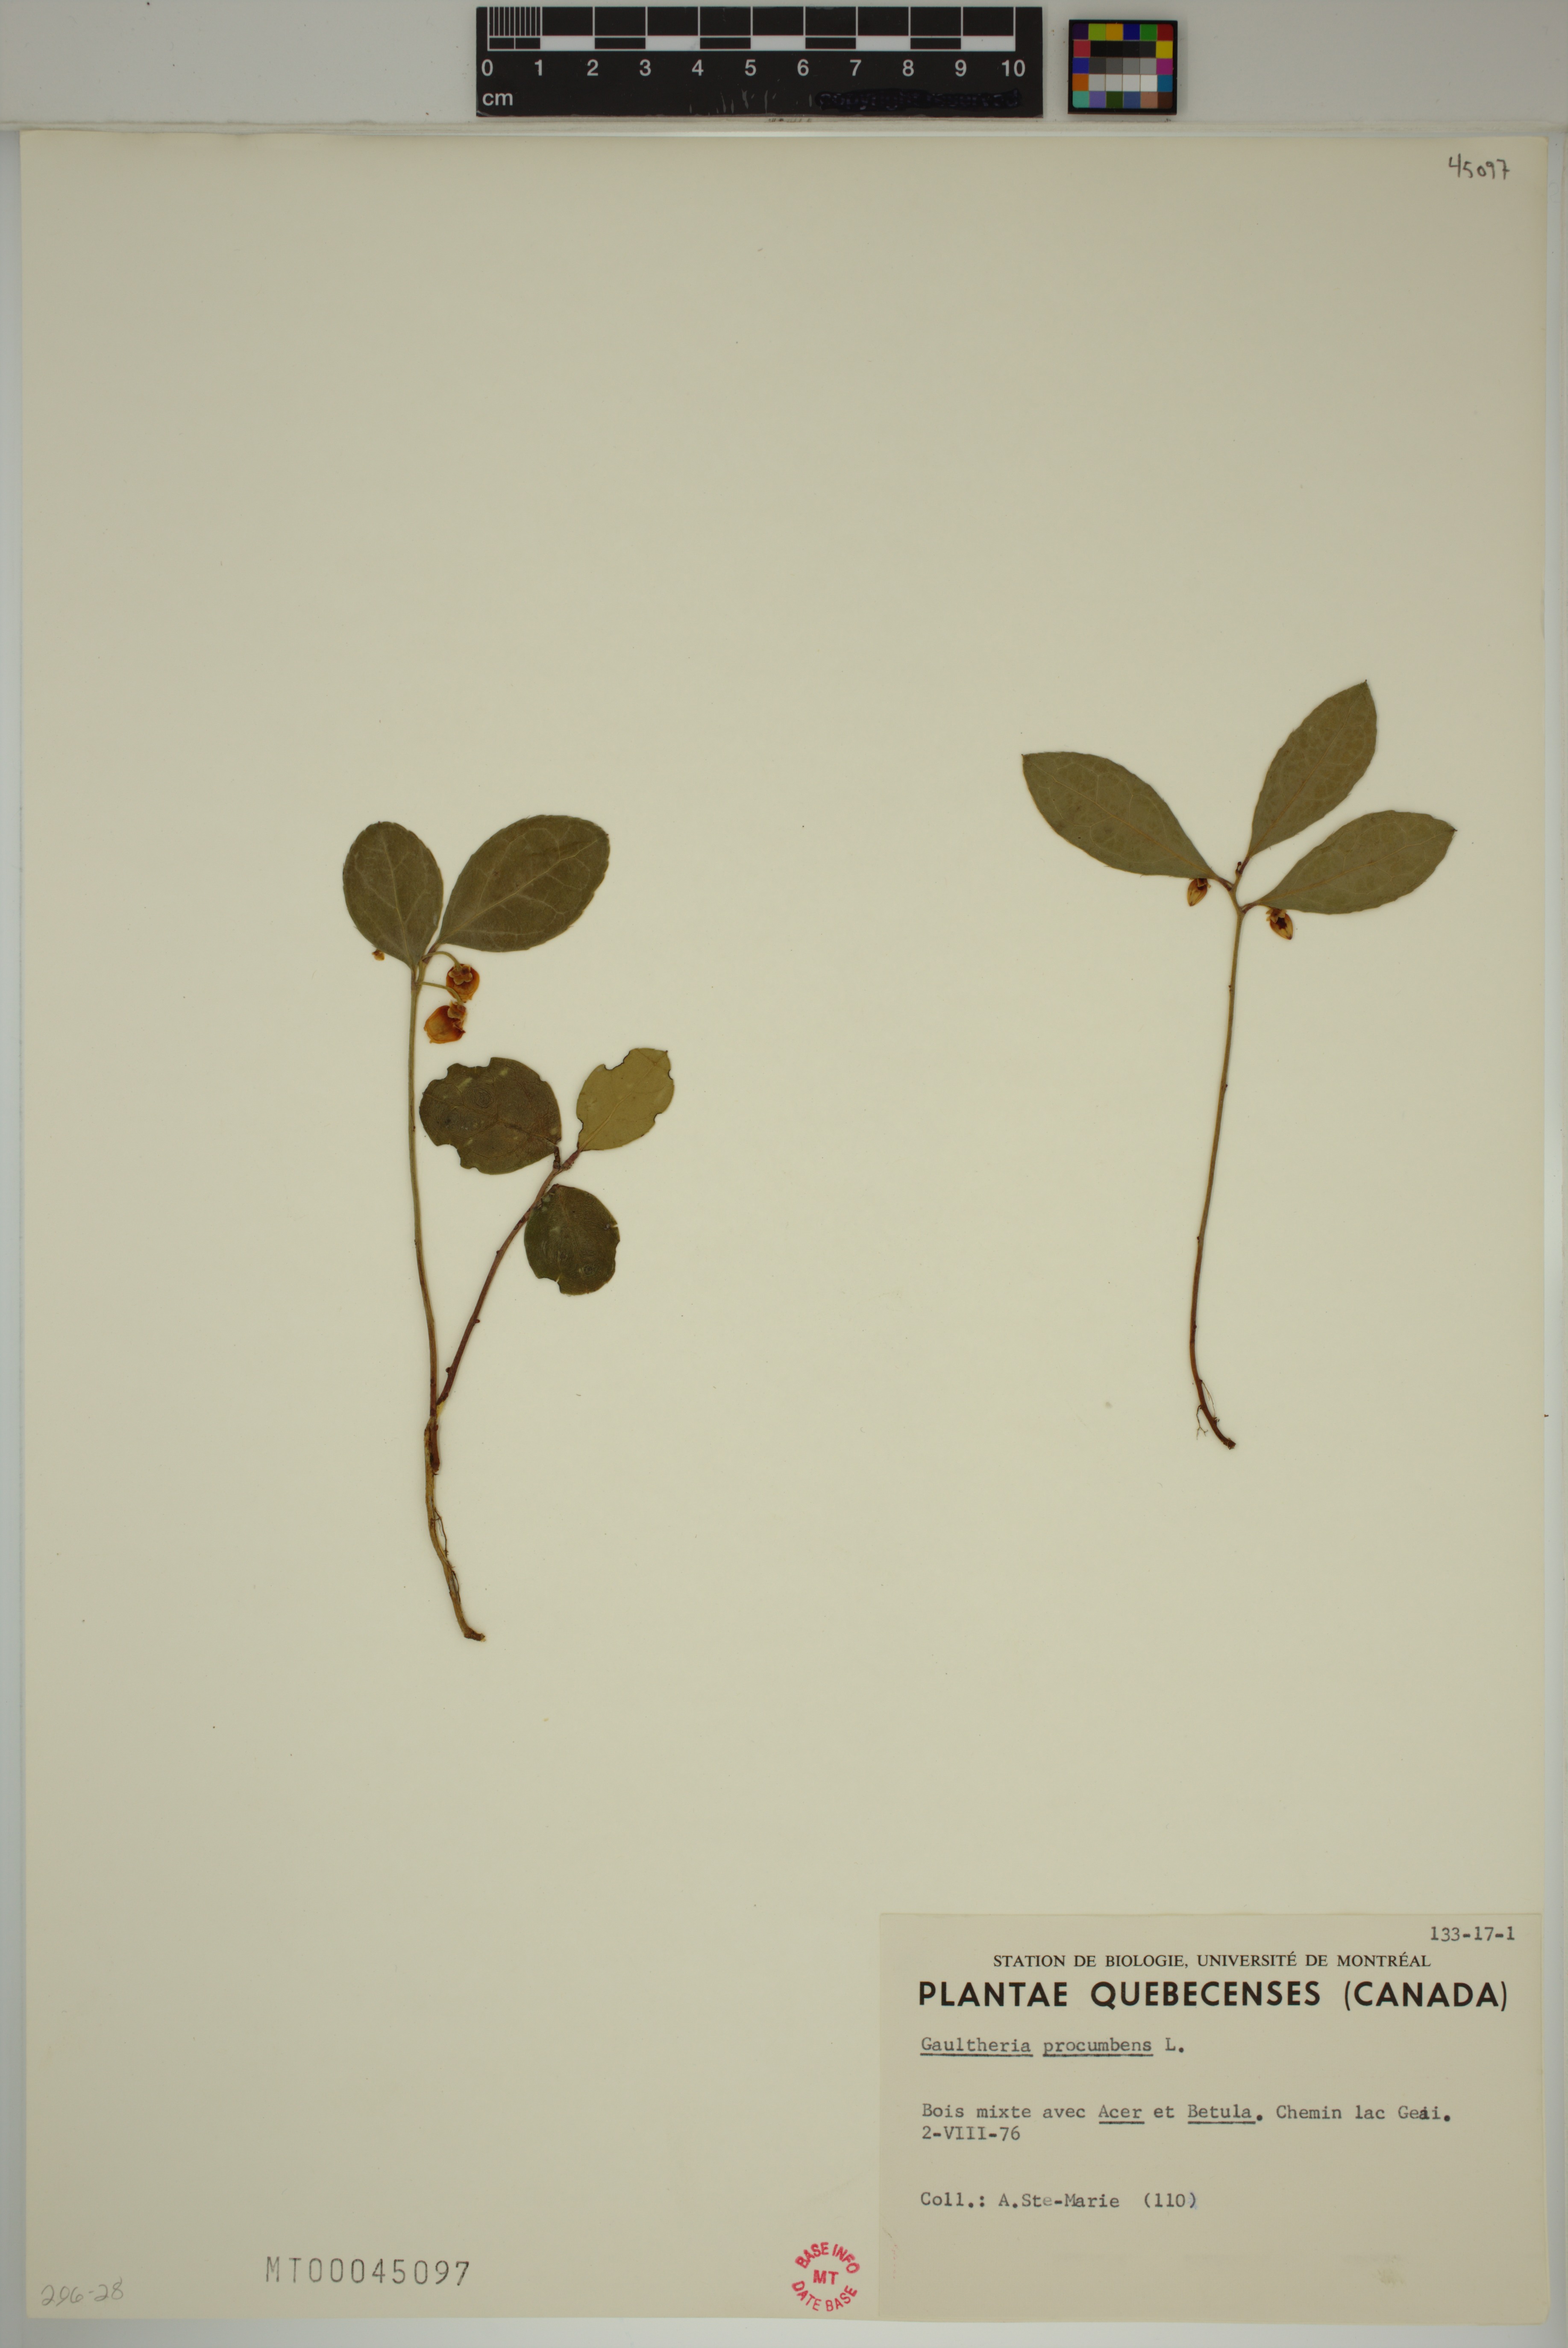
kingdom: Plantae
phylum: Tracheophyta
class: Magnoliopsida
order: Ericales
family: Ericaceae
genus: Gaultheria
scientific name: Gaultheria procumbens
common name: Checkerberry
